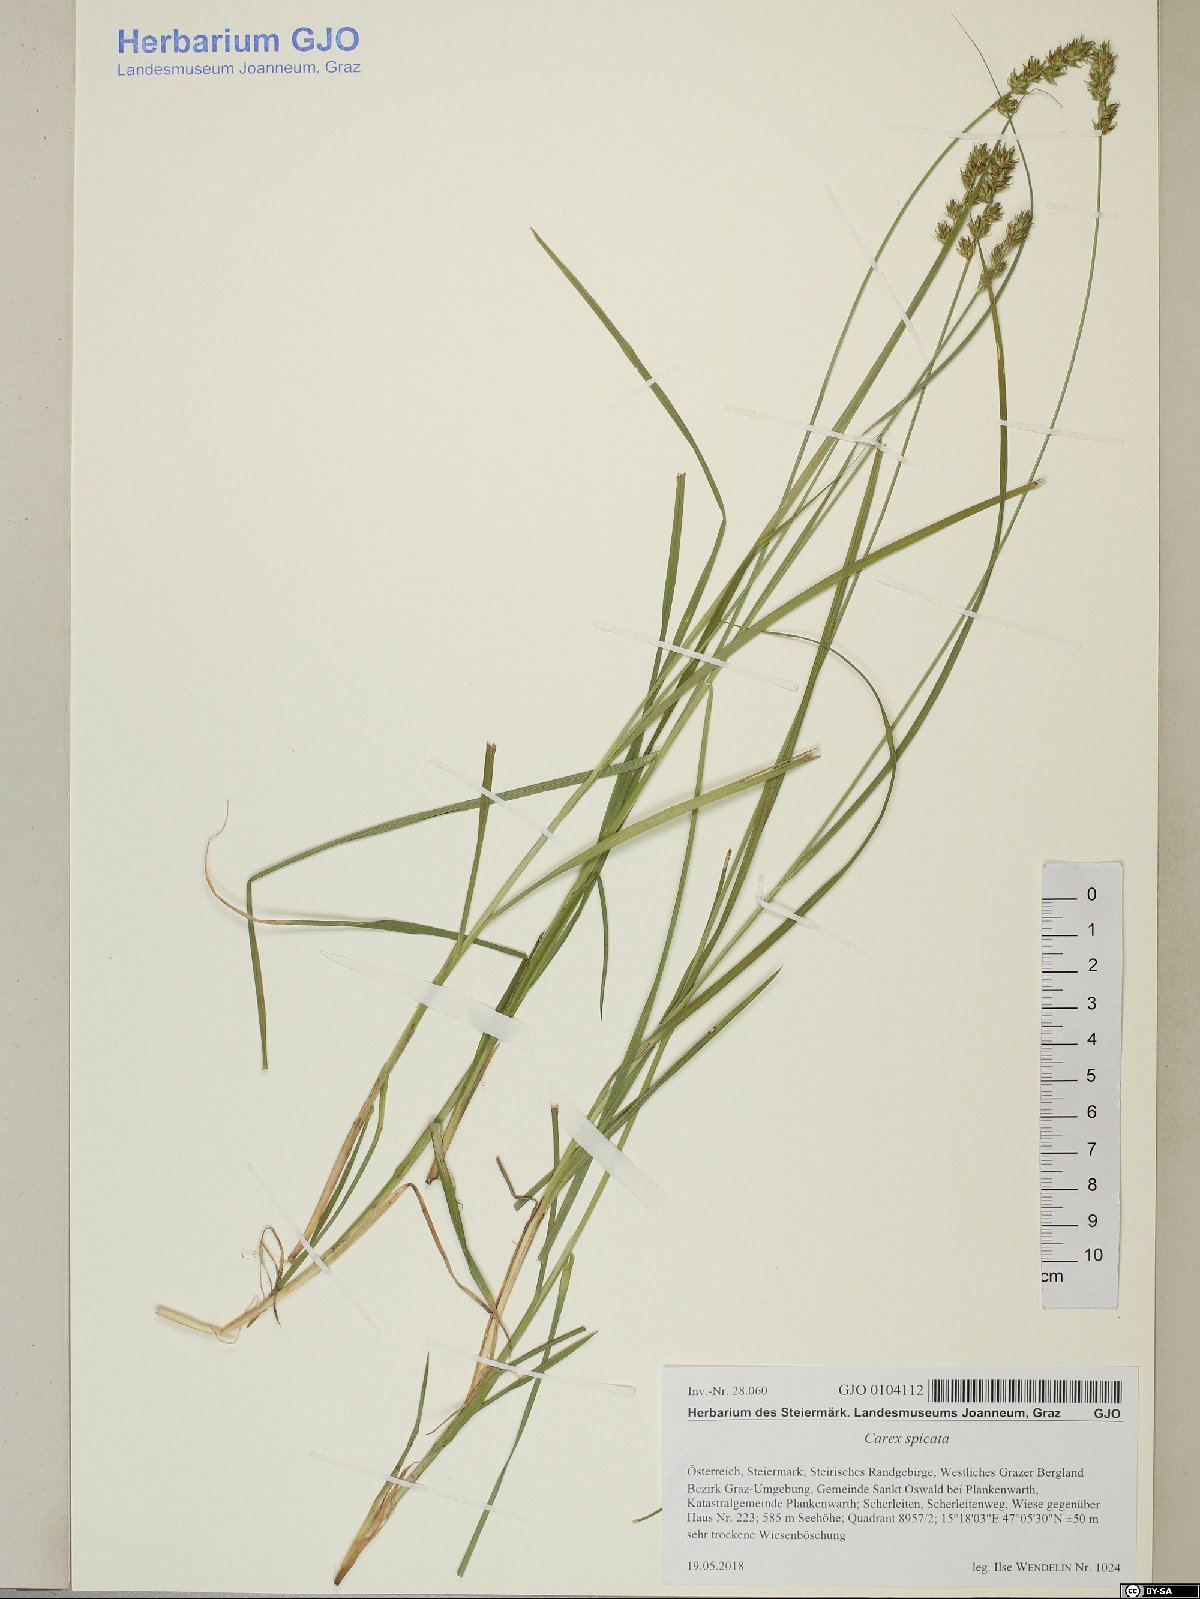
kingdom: Plantae
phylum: Tracheophyta
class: Liliopsida
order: Poales
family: Cyperaceae
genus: Carex
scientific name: Carex spicata
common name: Spiked sedge
